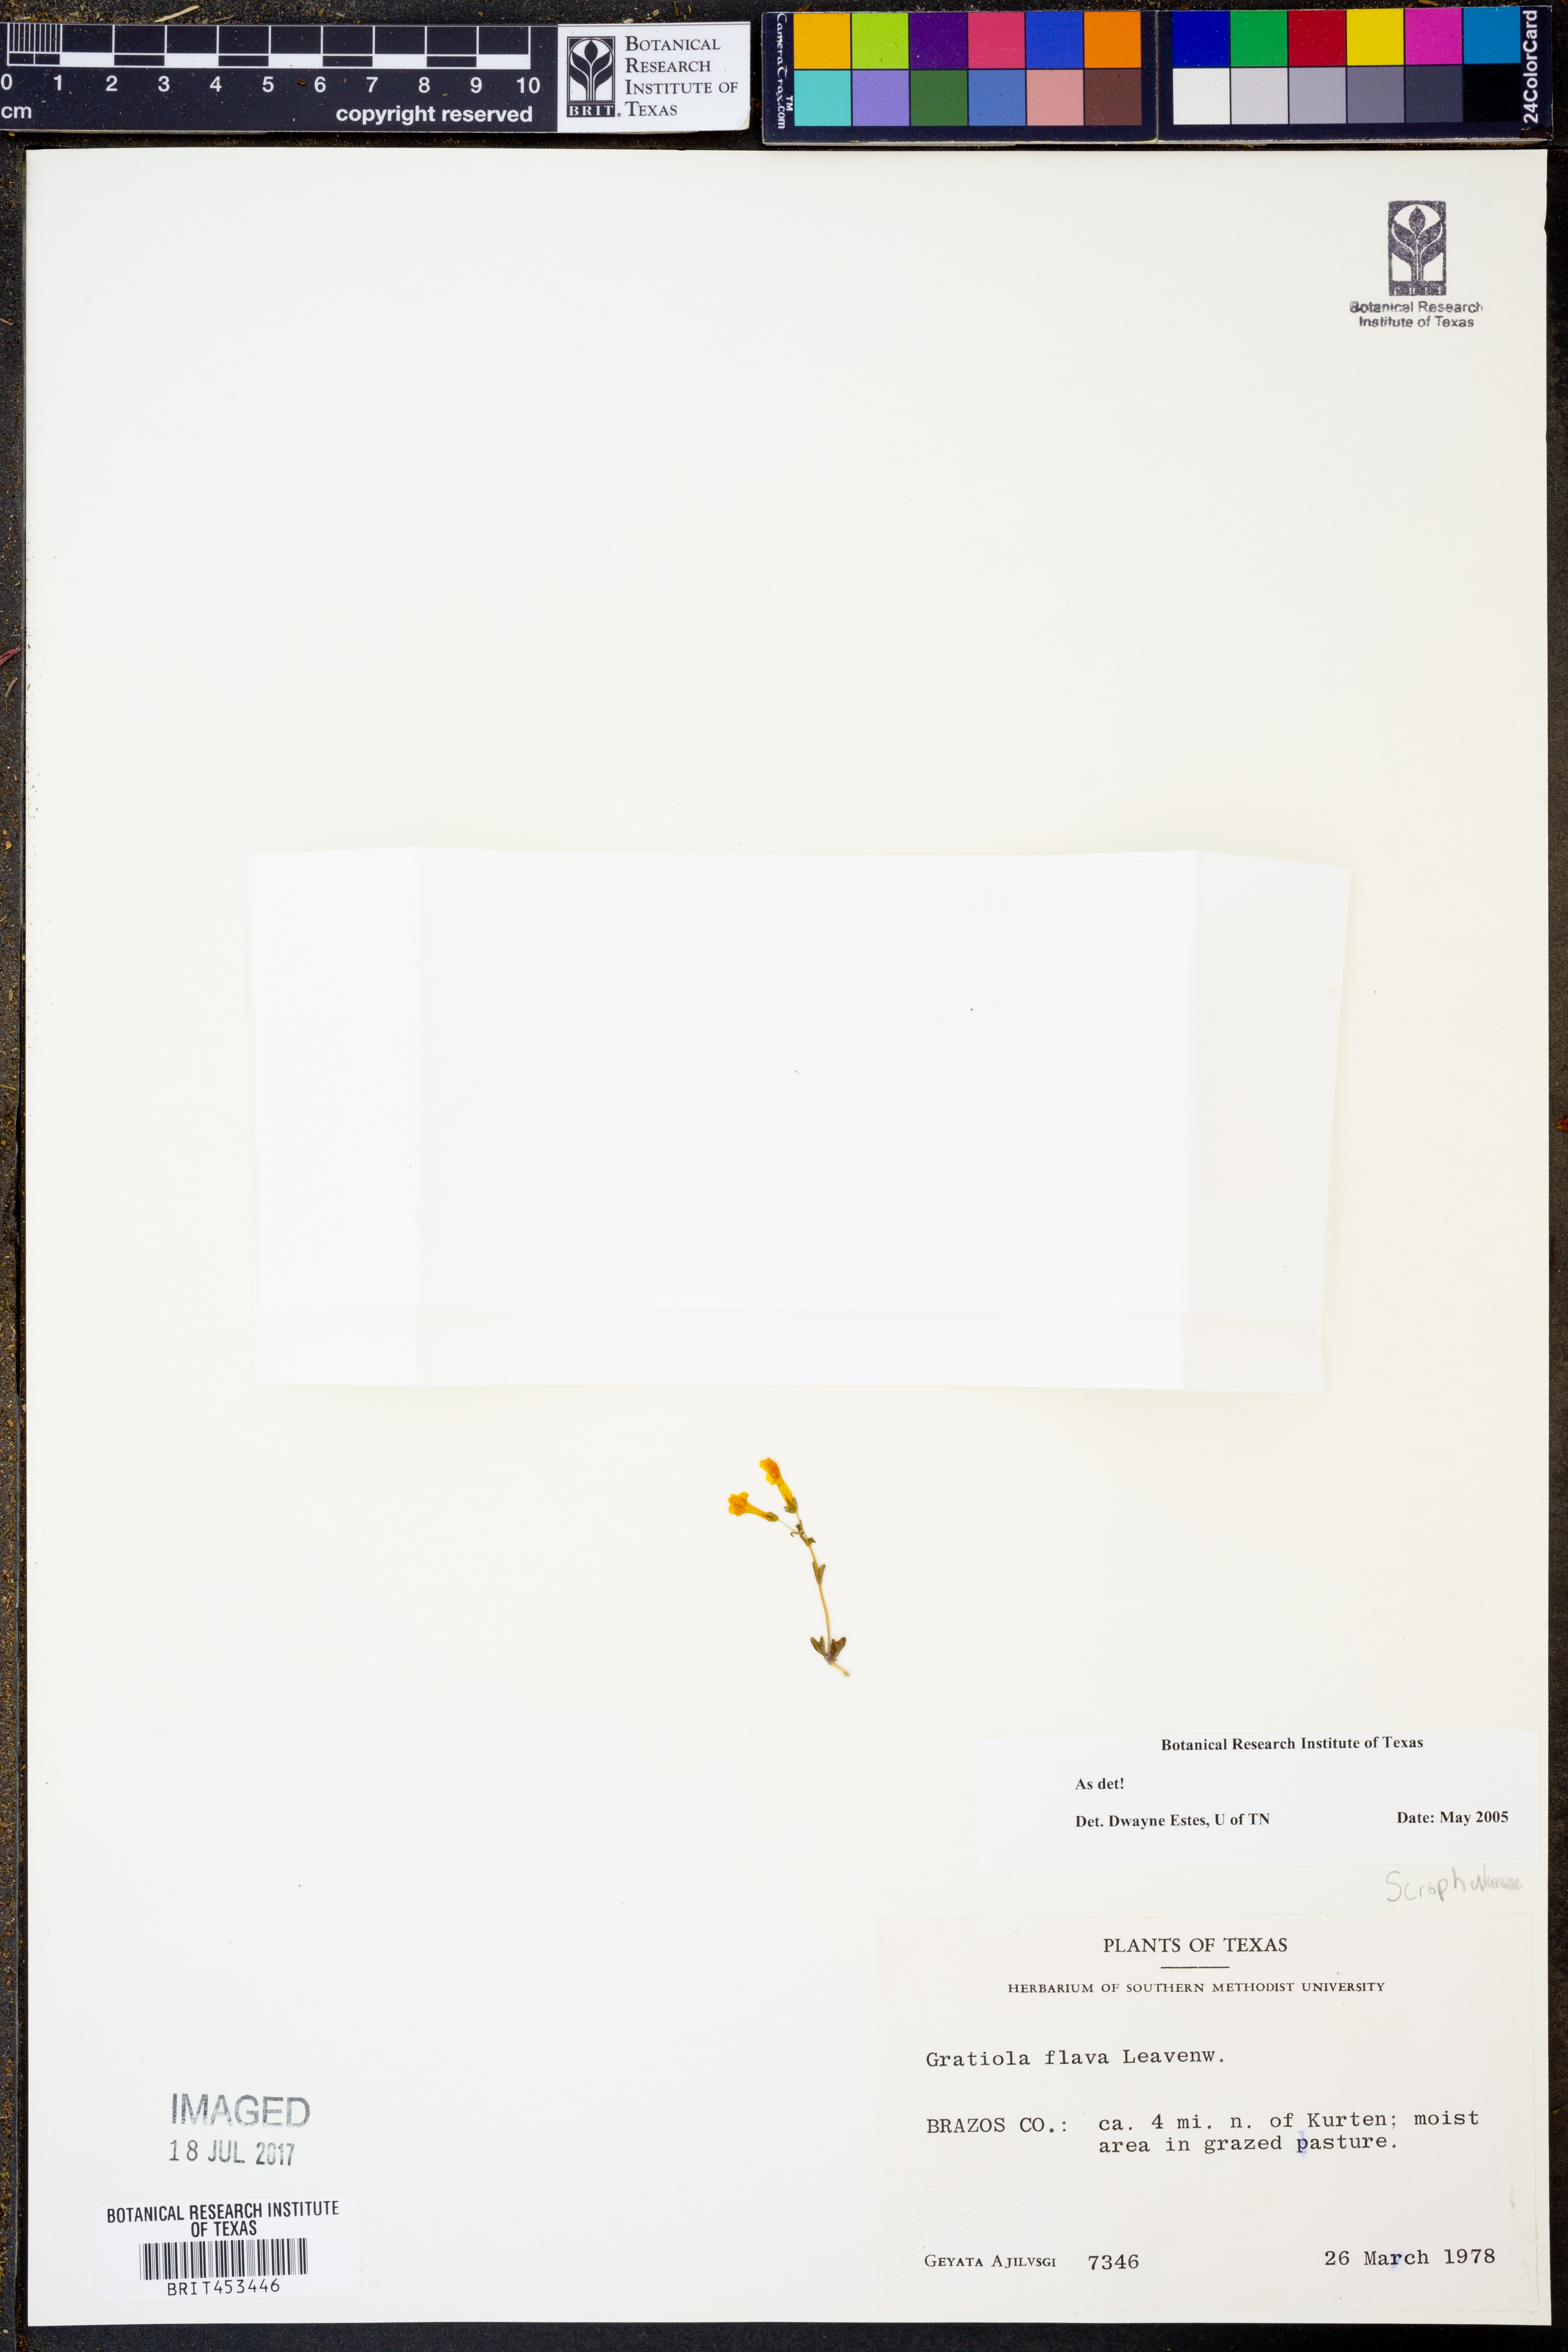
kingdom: Plantae
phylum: Tracheophyta
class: Magnoliopsida
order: Lamiales
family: Plantaginaceae
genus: Gratiola
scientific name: Gratiola flava
